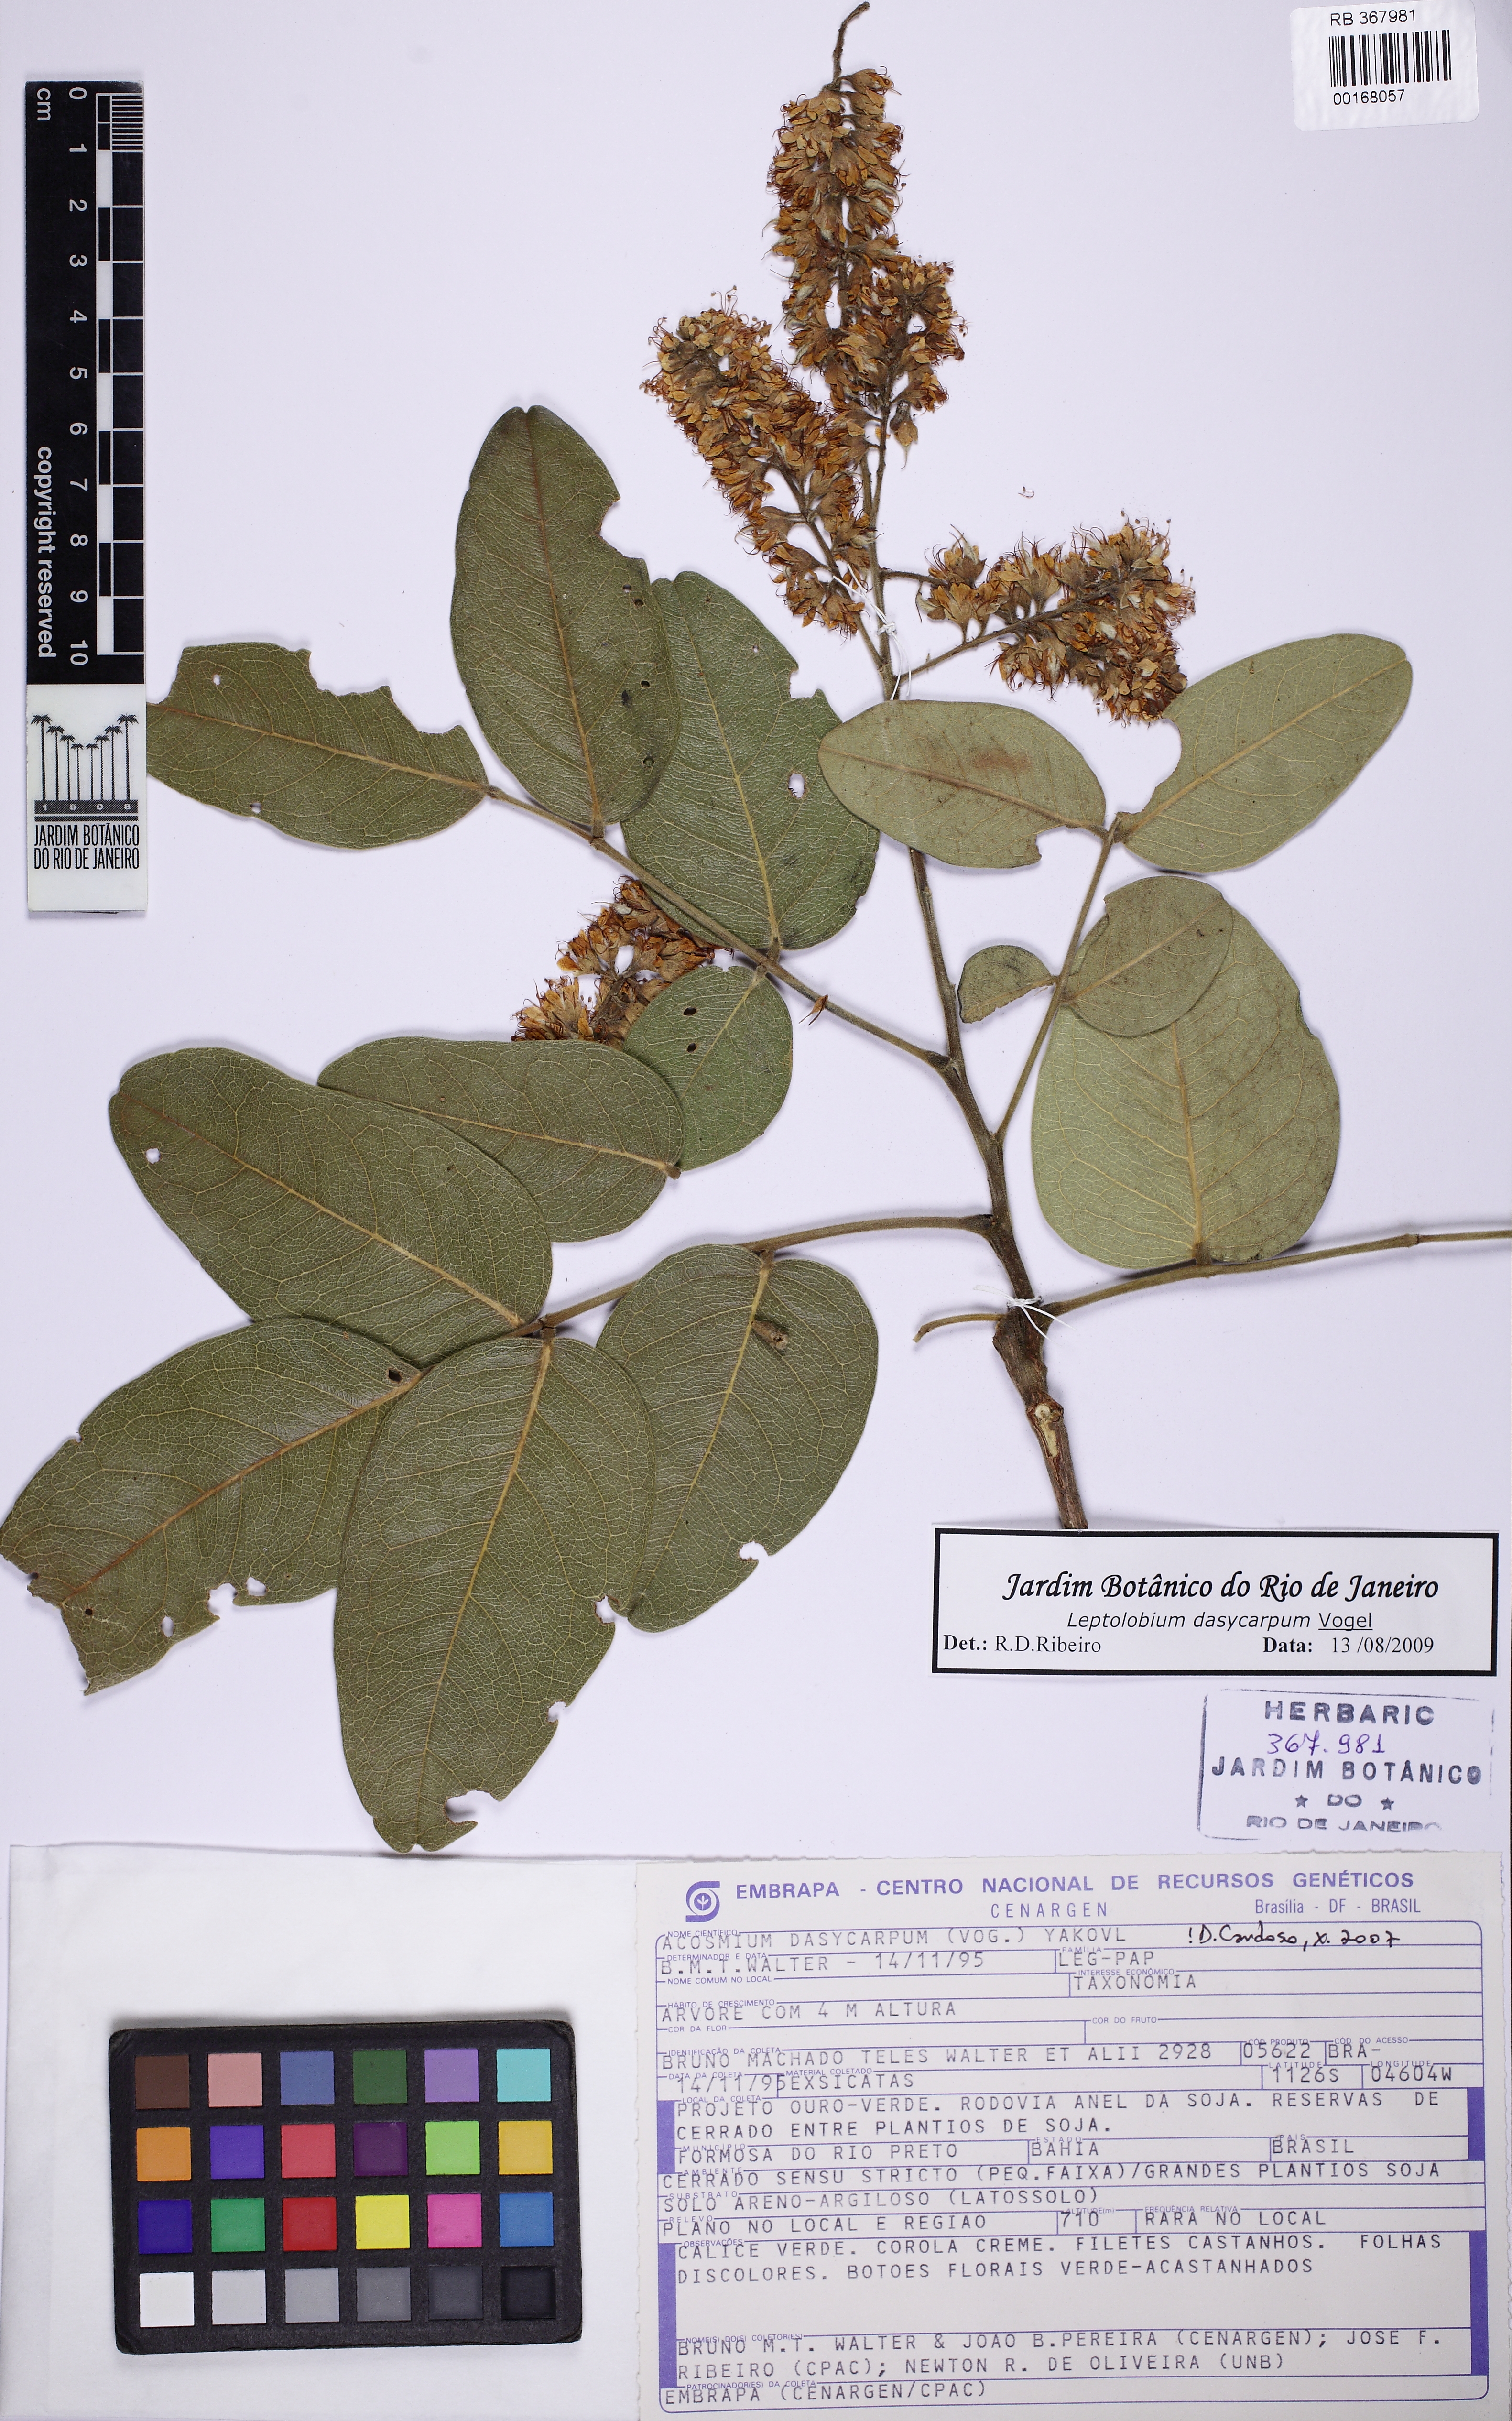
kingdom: Plantae
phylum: Tracheophyta
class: Magnoliopsida
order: Fabales
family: Fabaceae
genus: Leptolobium
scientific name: Leptolobium dasycarpum
